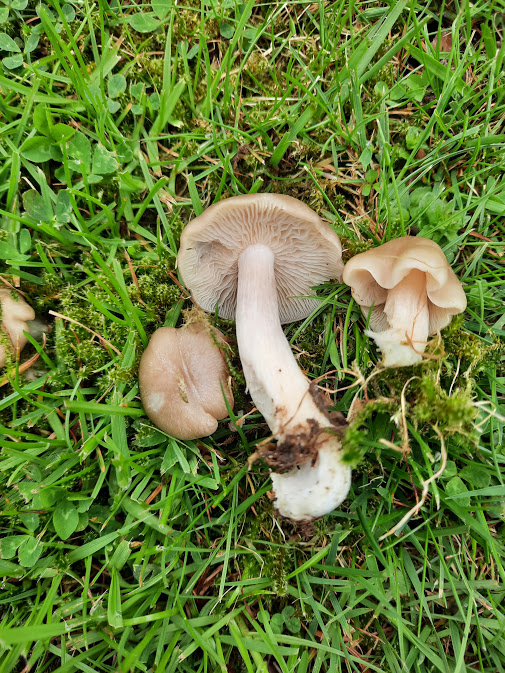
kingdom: Fungi
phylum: Basidiomycota
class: Agaricomycetes
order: Agaricales
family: Entolomataceae
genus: Entoloma
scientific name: Entoloma
